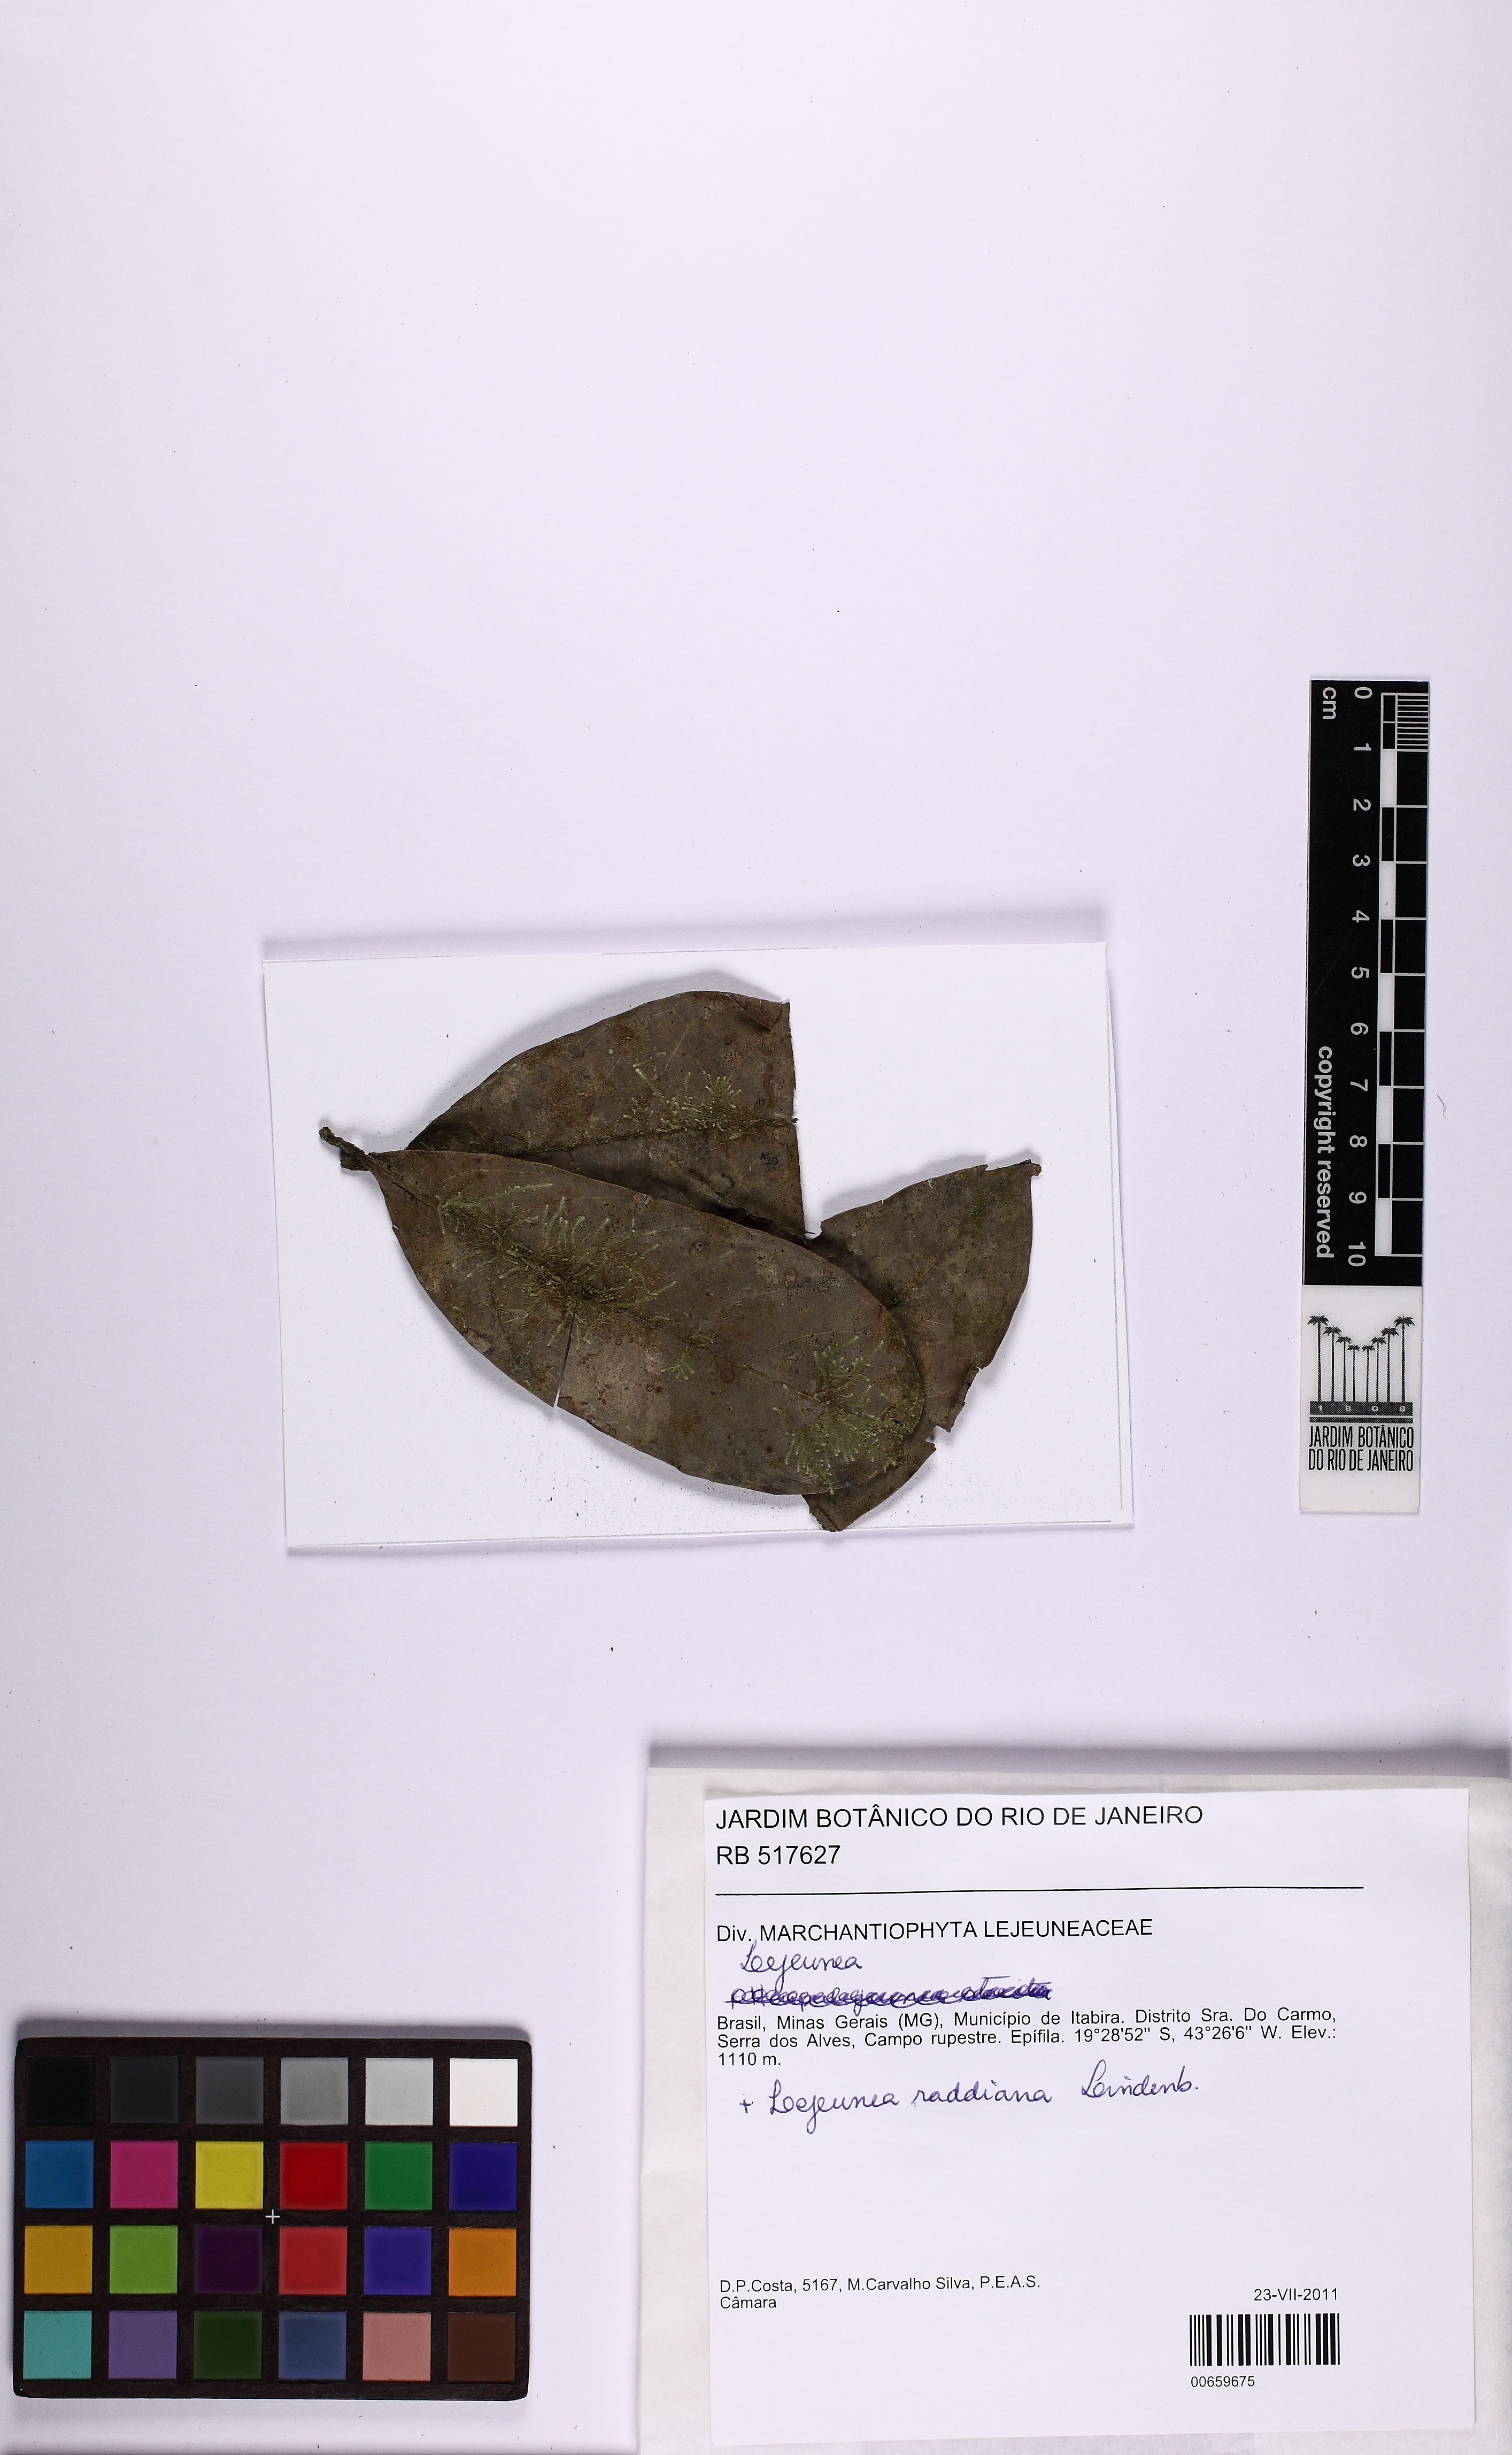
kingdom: Plantae
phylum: Marchantiophyta
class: Jungermanniopsida
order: Porellales
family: Lejeuneaceae
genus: Lejeunea
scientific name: Lejeunea
